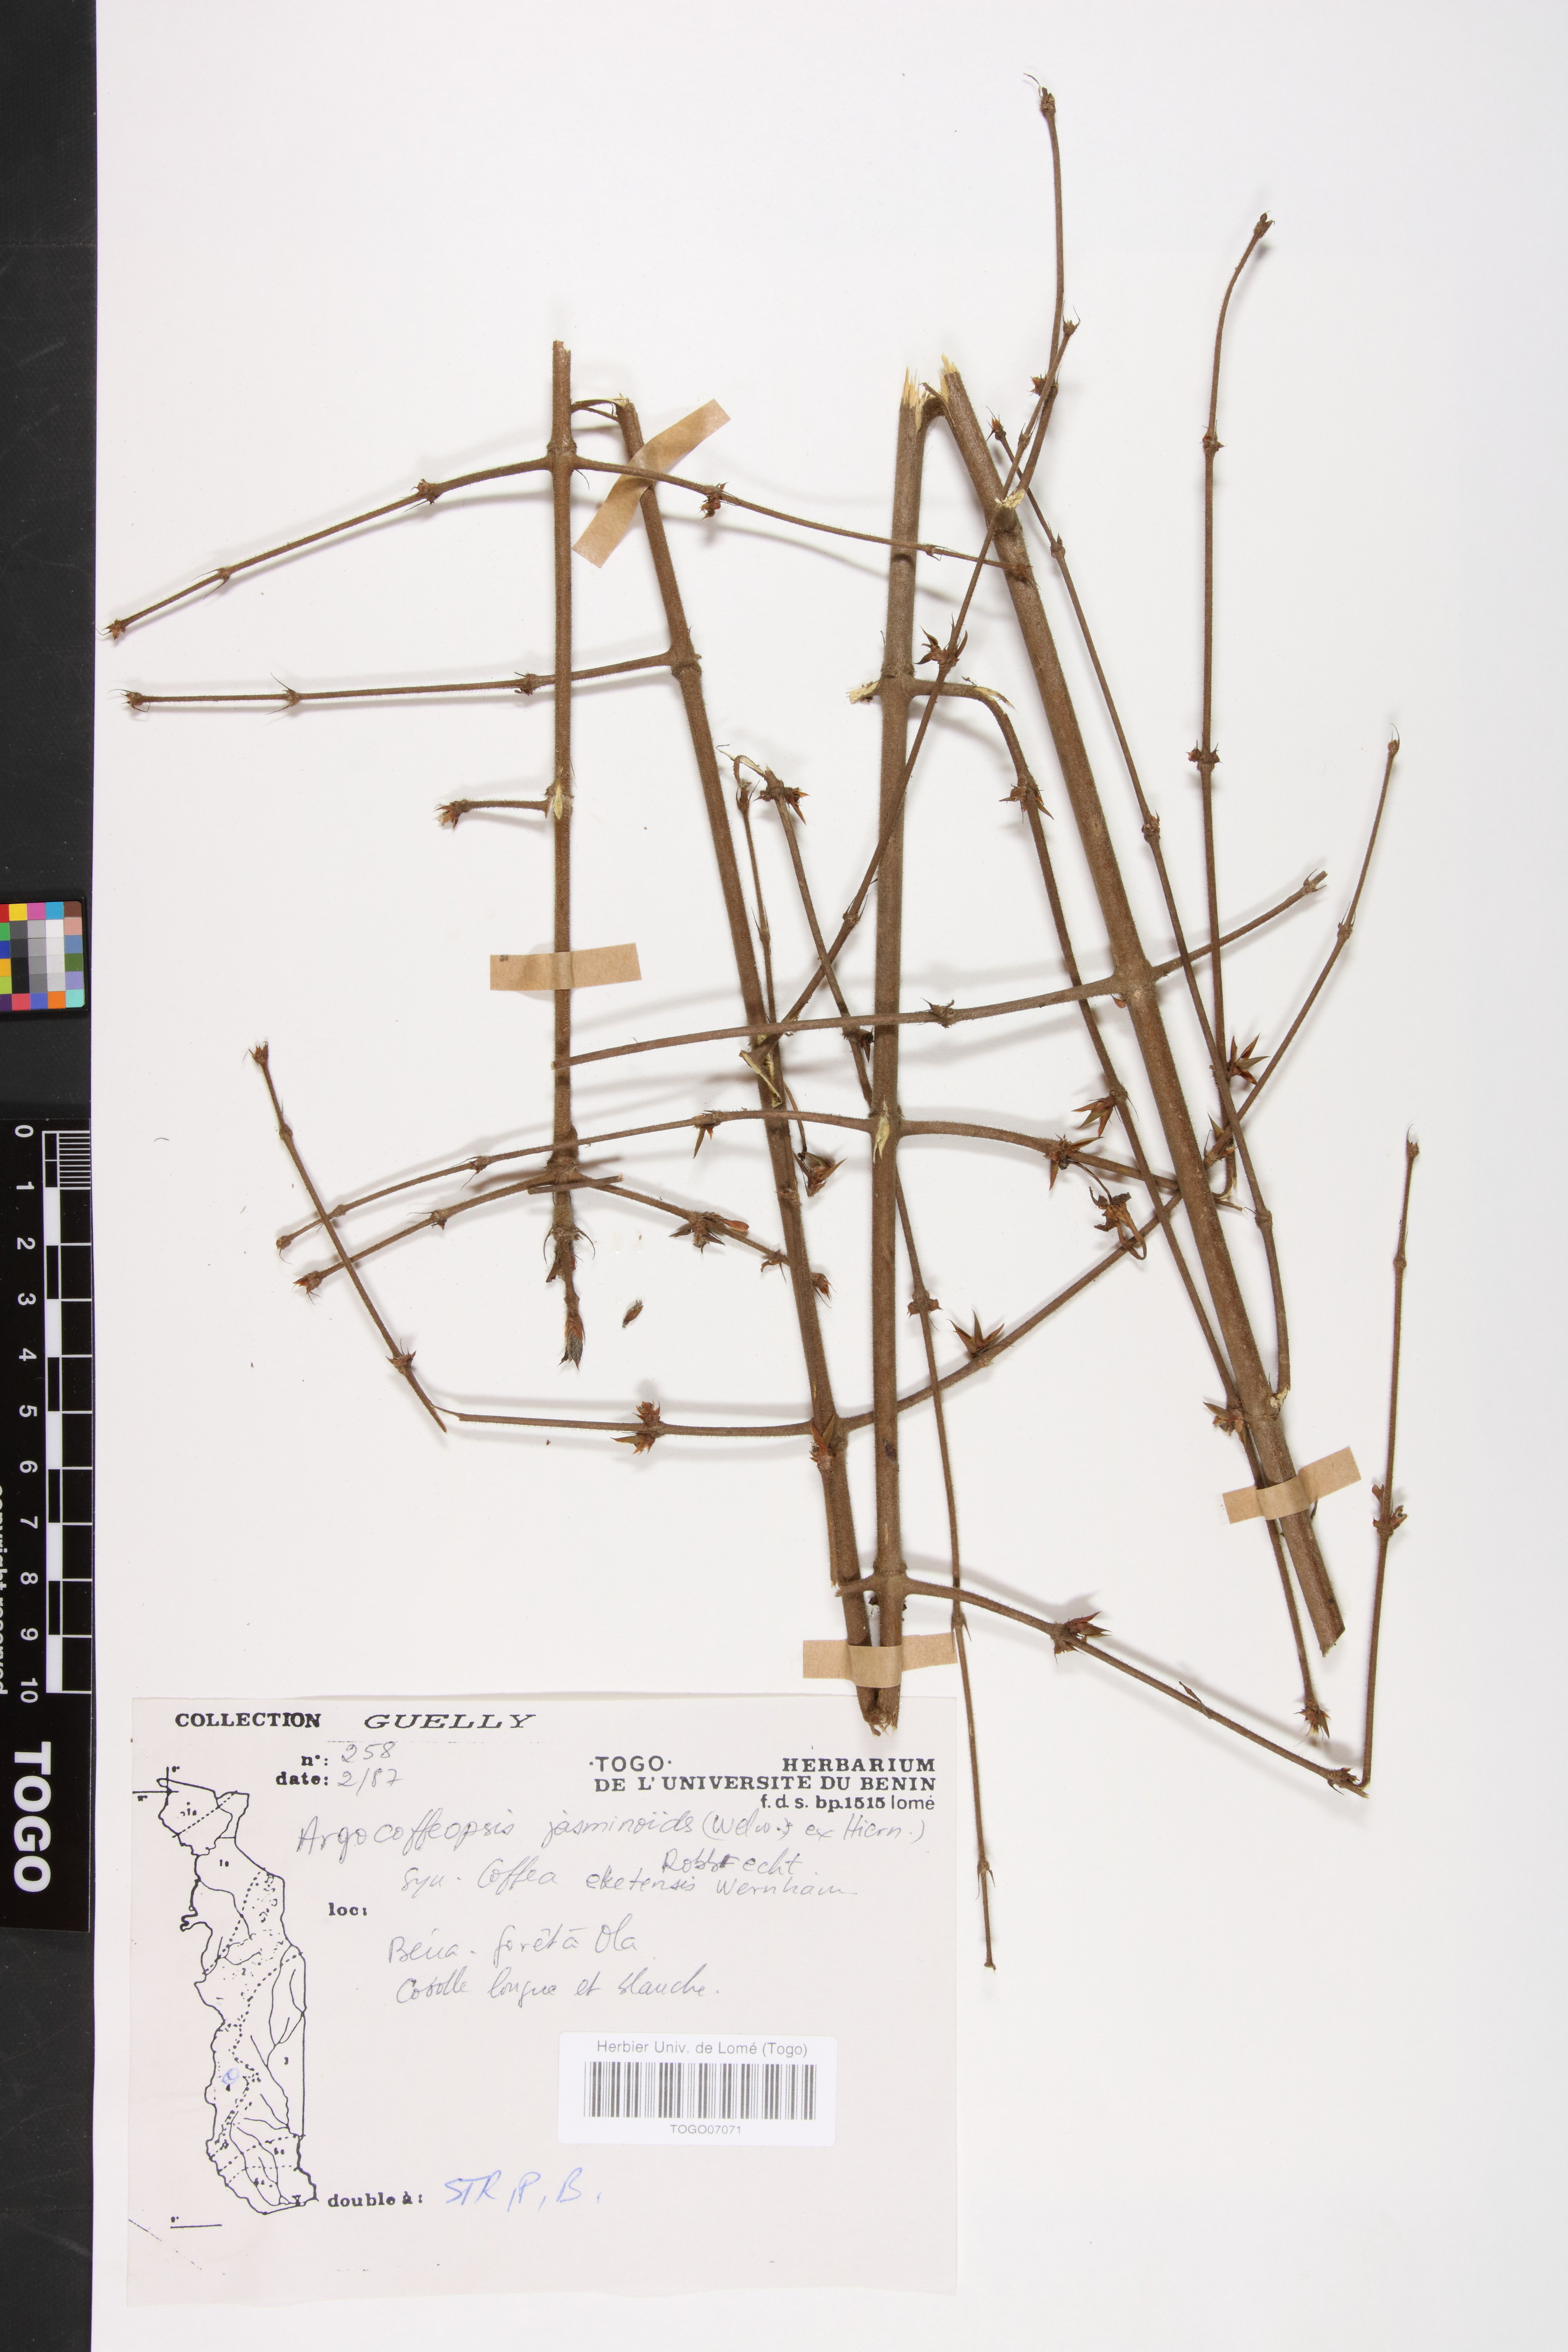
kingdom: Plantae
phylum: Tracheophyta
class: Magnoliopsida
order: Gentianales
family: Rubiaceae
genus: Argocoffeopsis
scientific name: Argocoffeopsis eketensis
